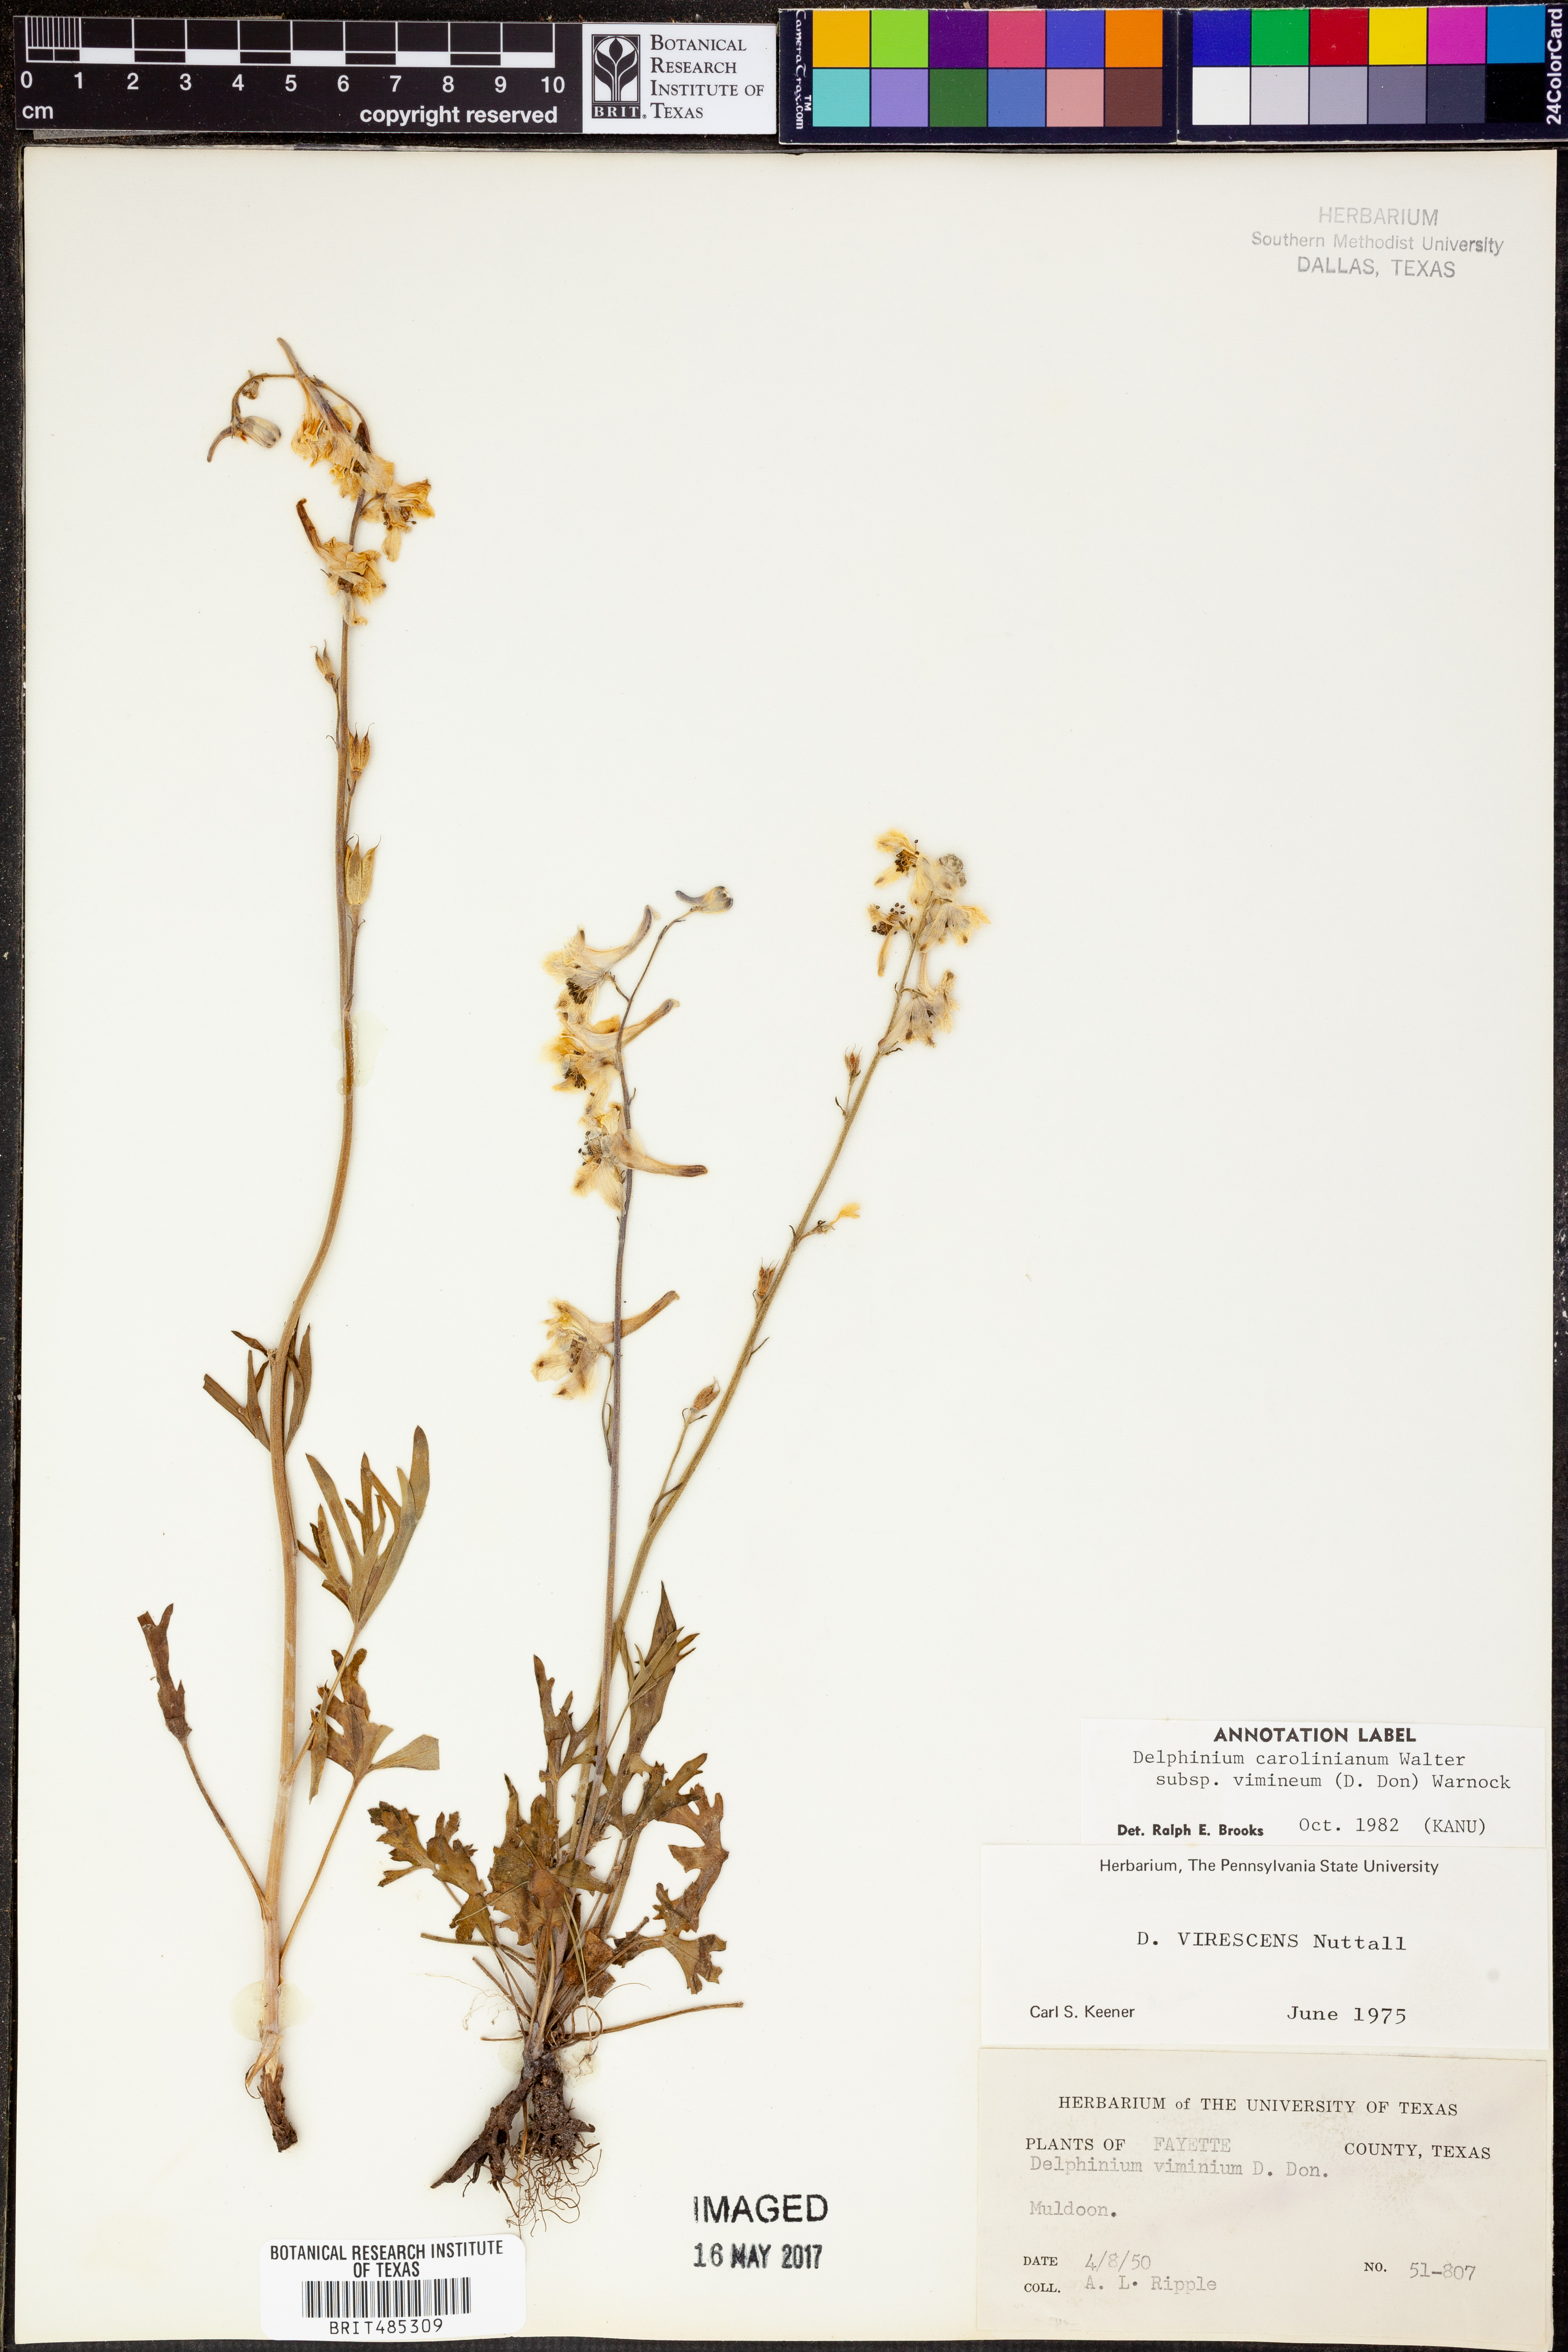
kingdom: Plantae
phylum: Tracheophyta
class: Magnoliopsida
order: Ranunculales
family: Ranunculaceae
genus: Delphinium
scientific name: Delphinium carolinianum
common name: Carolina larkspur
